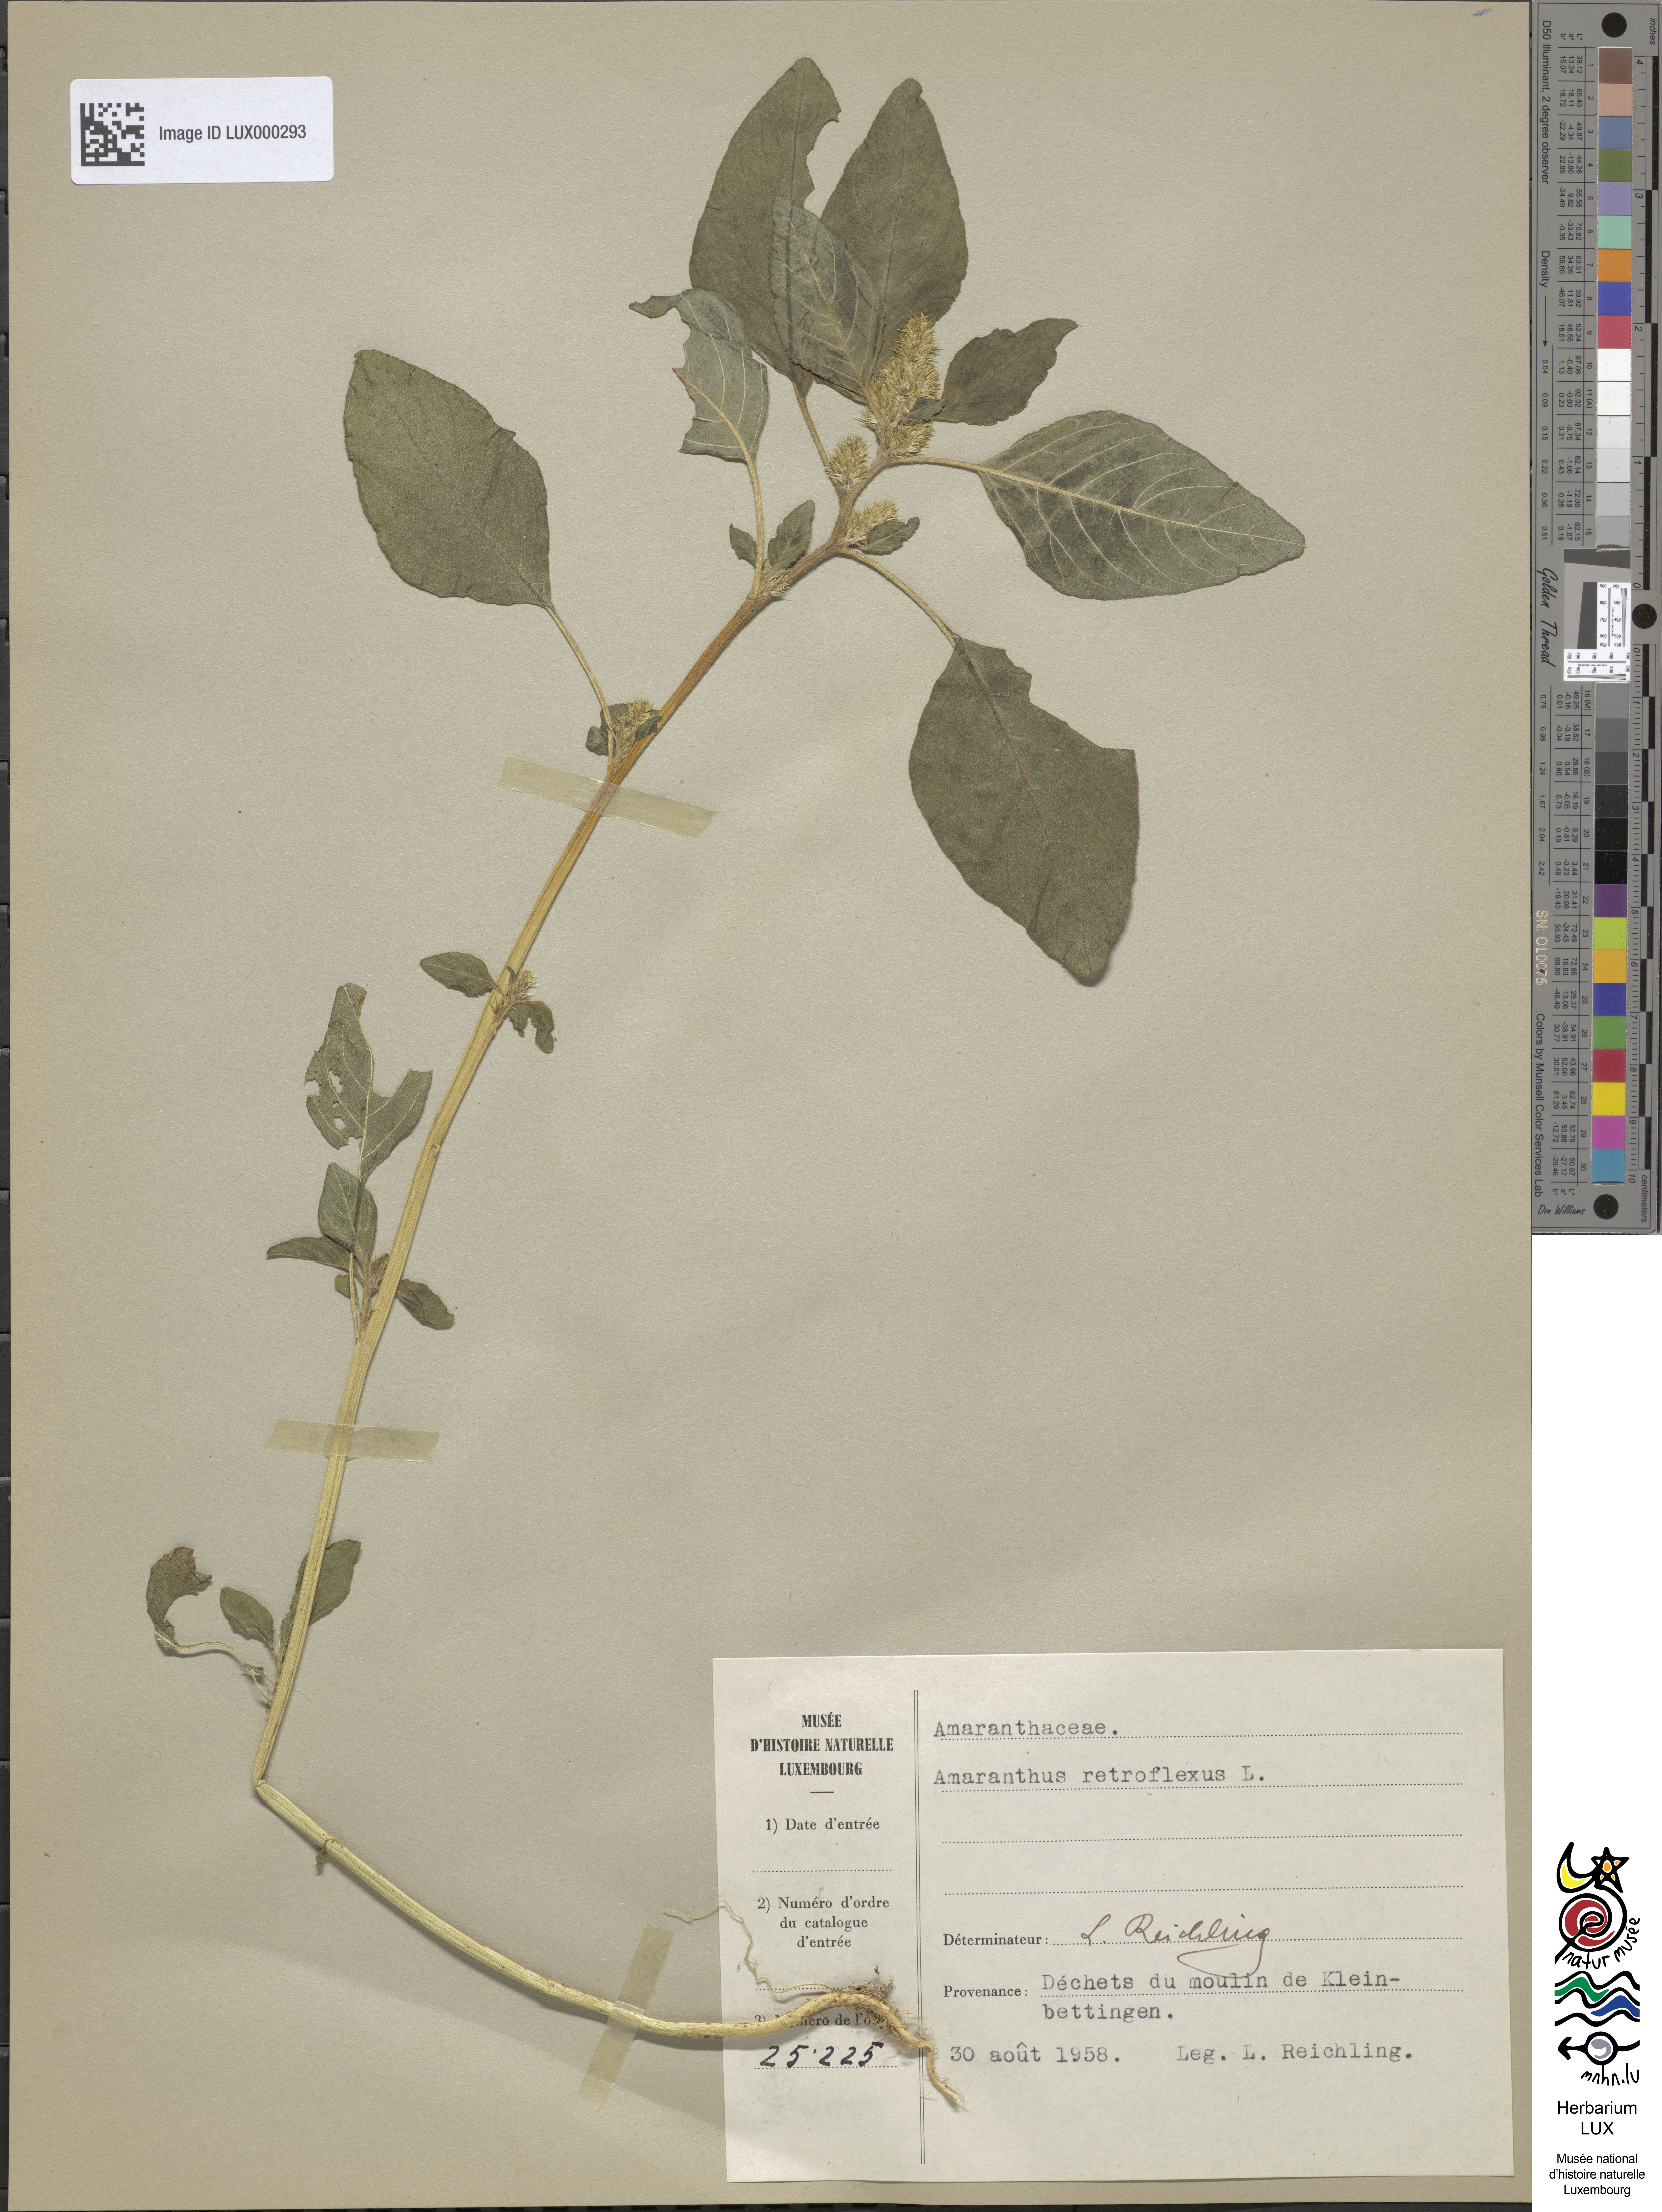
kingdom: Plantae
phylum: Tracheophyta
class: Magnoliopsida
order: Caryophyllales
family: Amaranthaceae
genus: Amaranthus
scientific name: Amaranthus retroflexus
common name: Redroot amaranth
